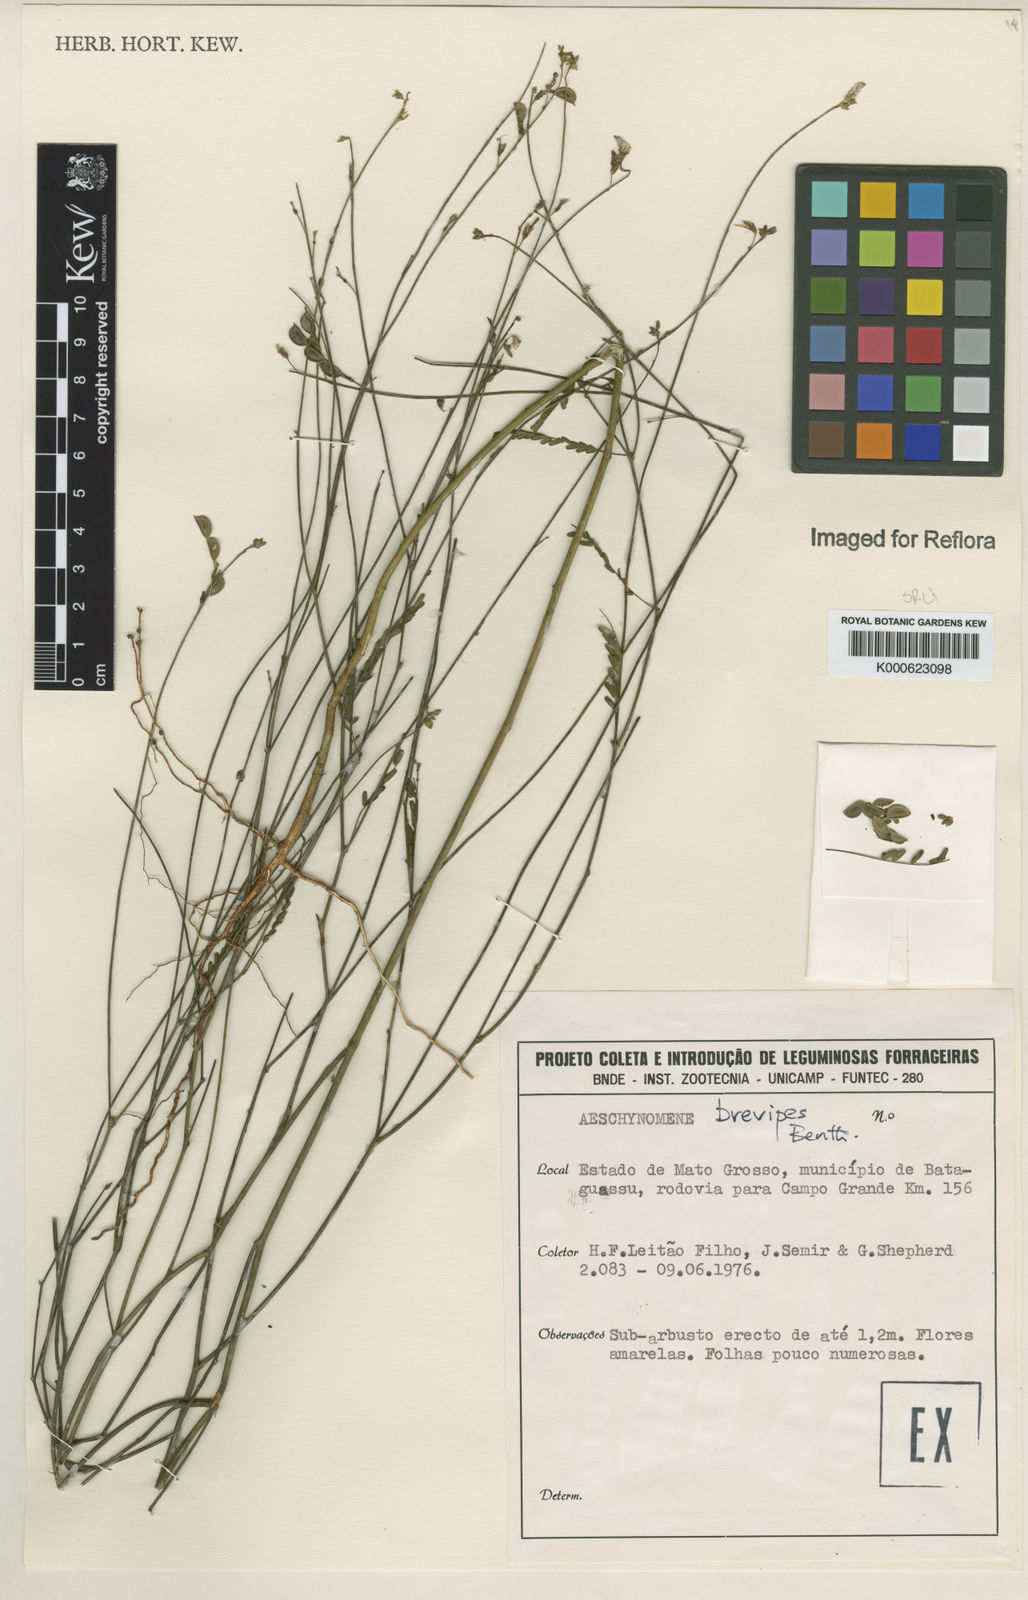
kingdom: Plantae
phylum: Tracheophyta
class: Magnoliopsida
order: Fabales
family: Fabaceae
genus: Ctenodon
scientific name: Ctenodon brevipes
